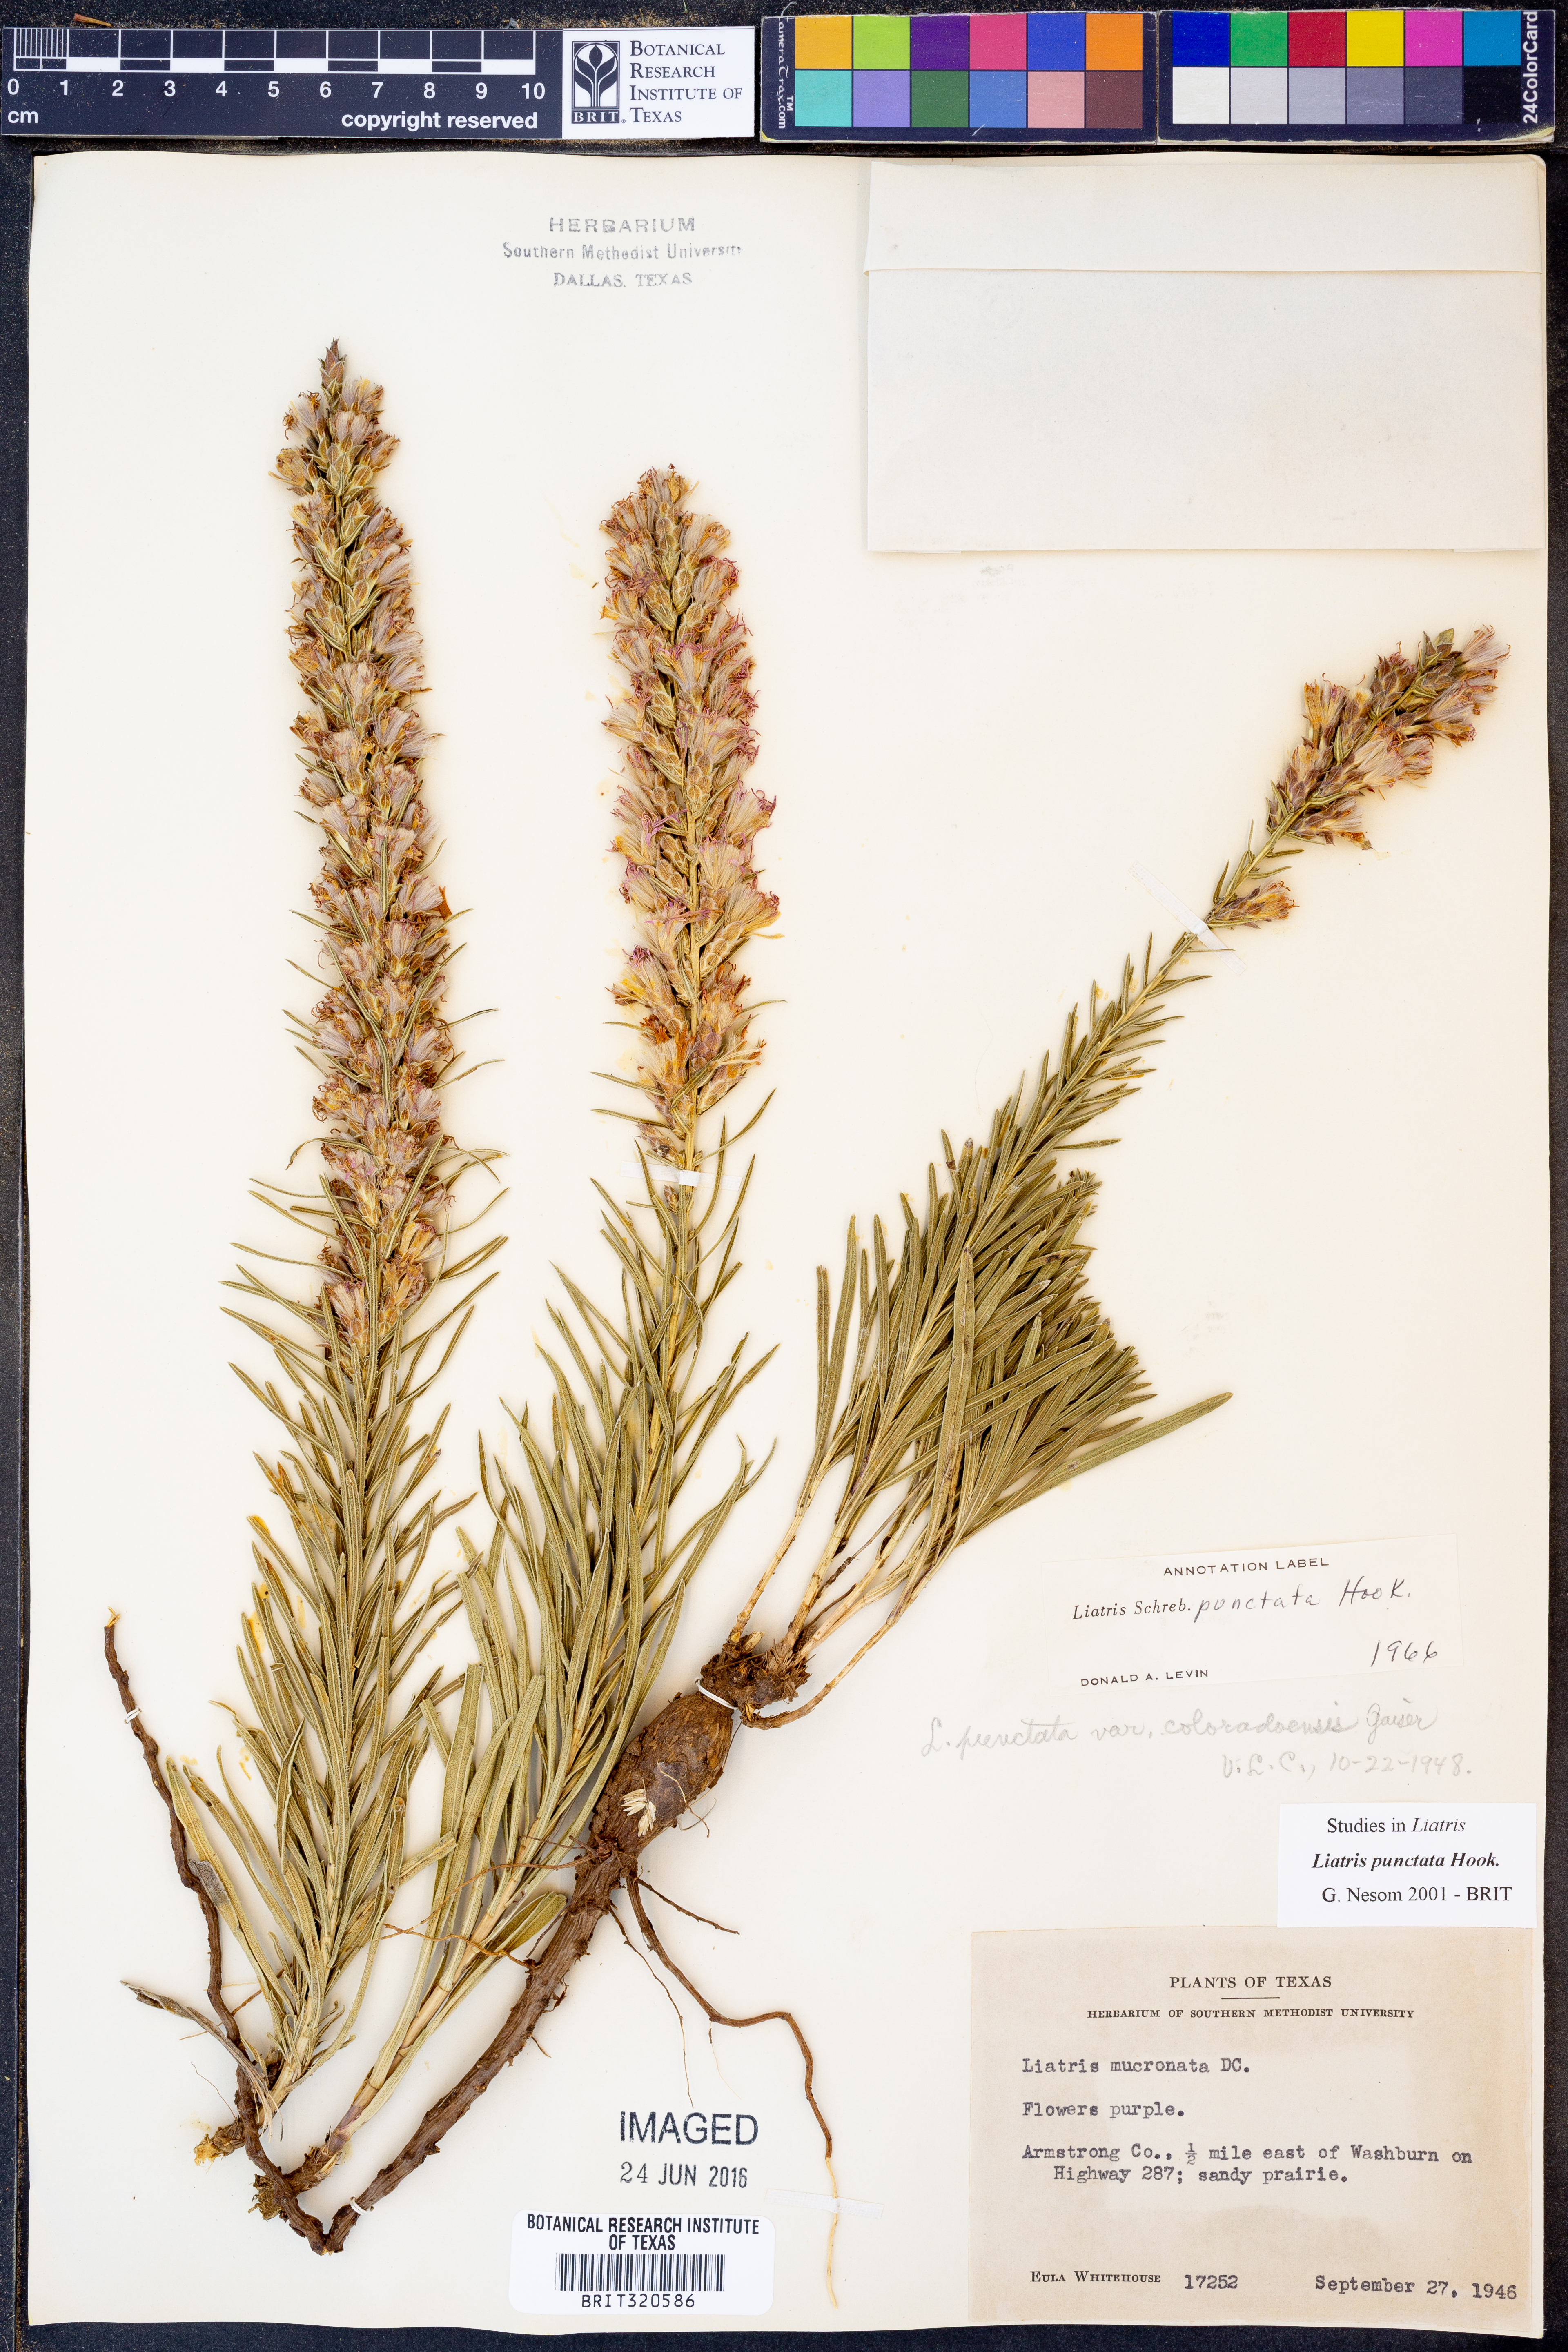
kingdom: Plantae
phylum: Tracheophyta
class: Magnoliopsida
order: Asterales
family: Asteraceae
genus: Liatris
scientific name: Liatris punctata
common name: Dotted gayfeather
